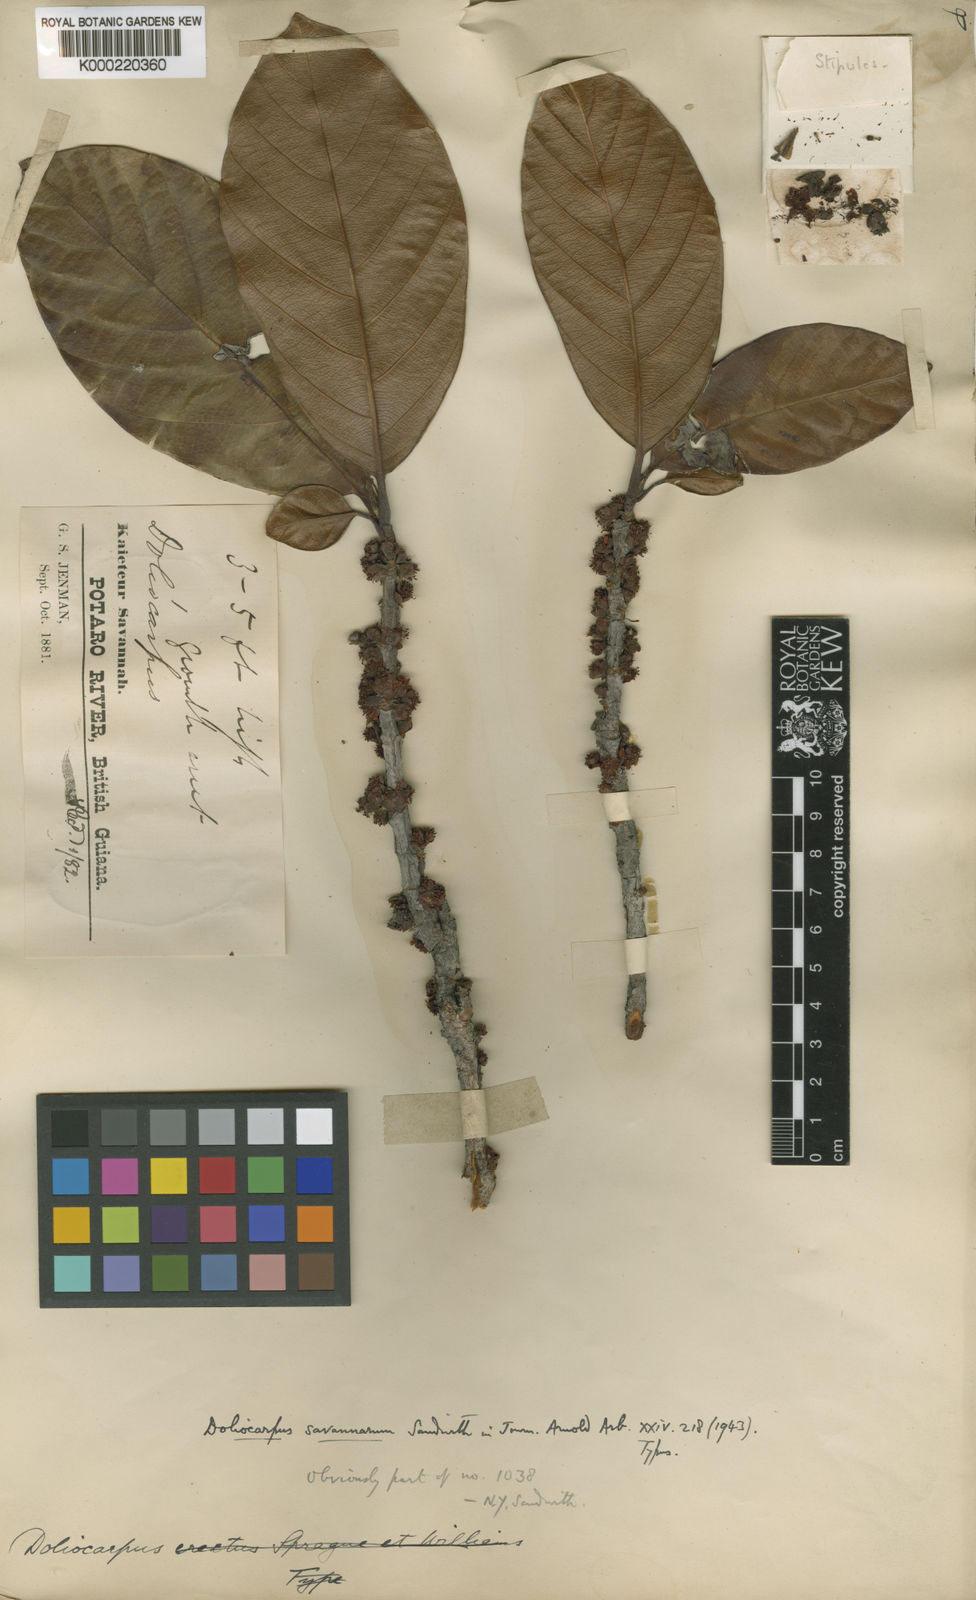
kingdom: Plantae
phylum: Tracheophyta
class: Magnoliopsida
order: Dilleniales
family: Dilleniaceae
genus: Doliocarpus
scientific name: Doliocarpus savannarum
